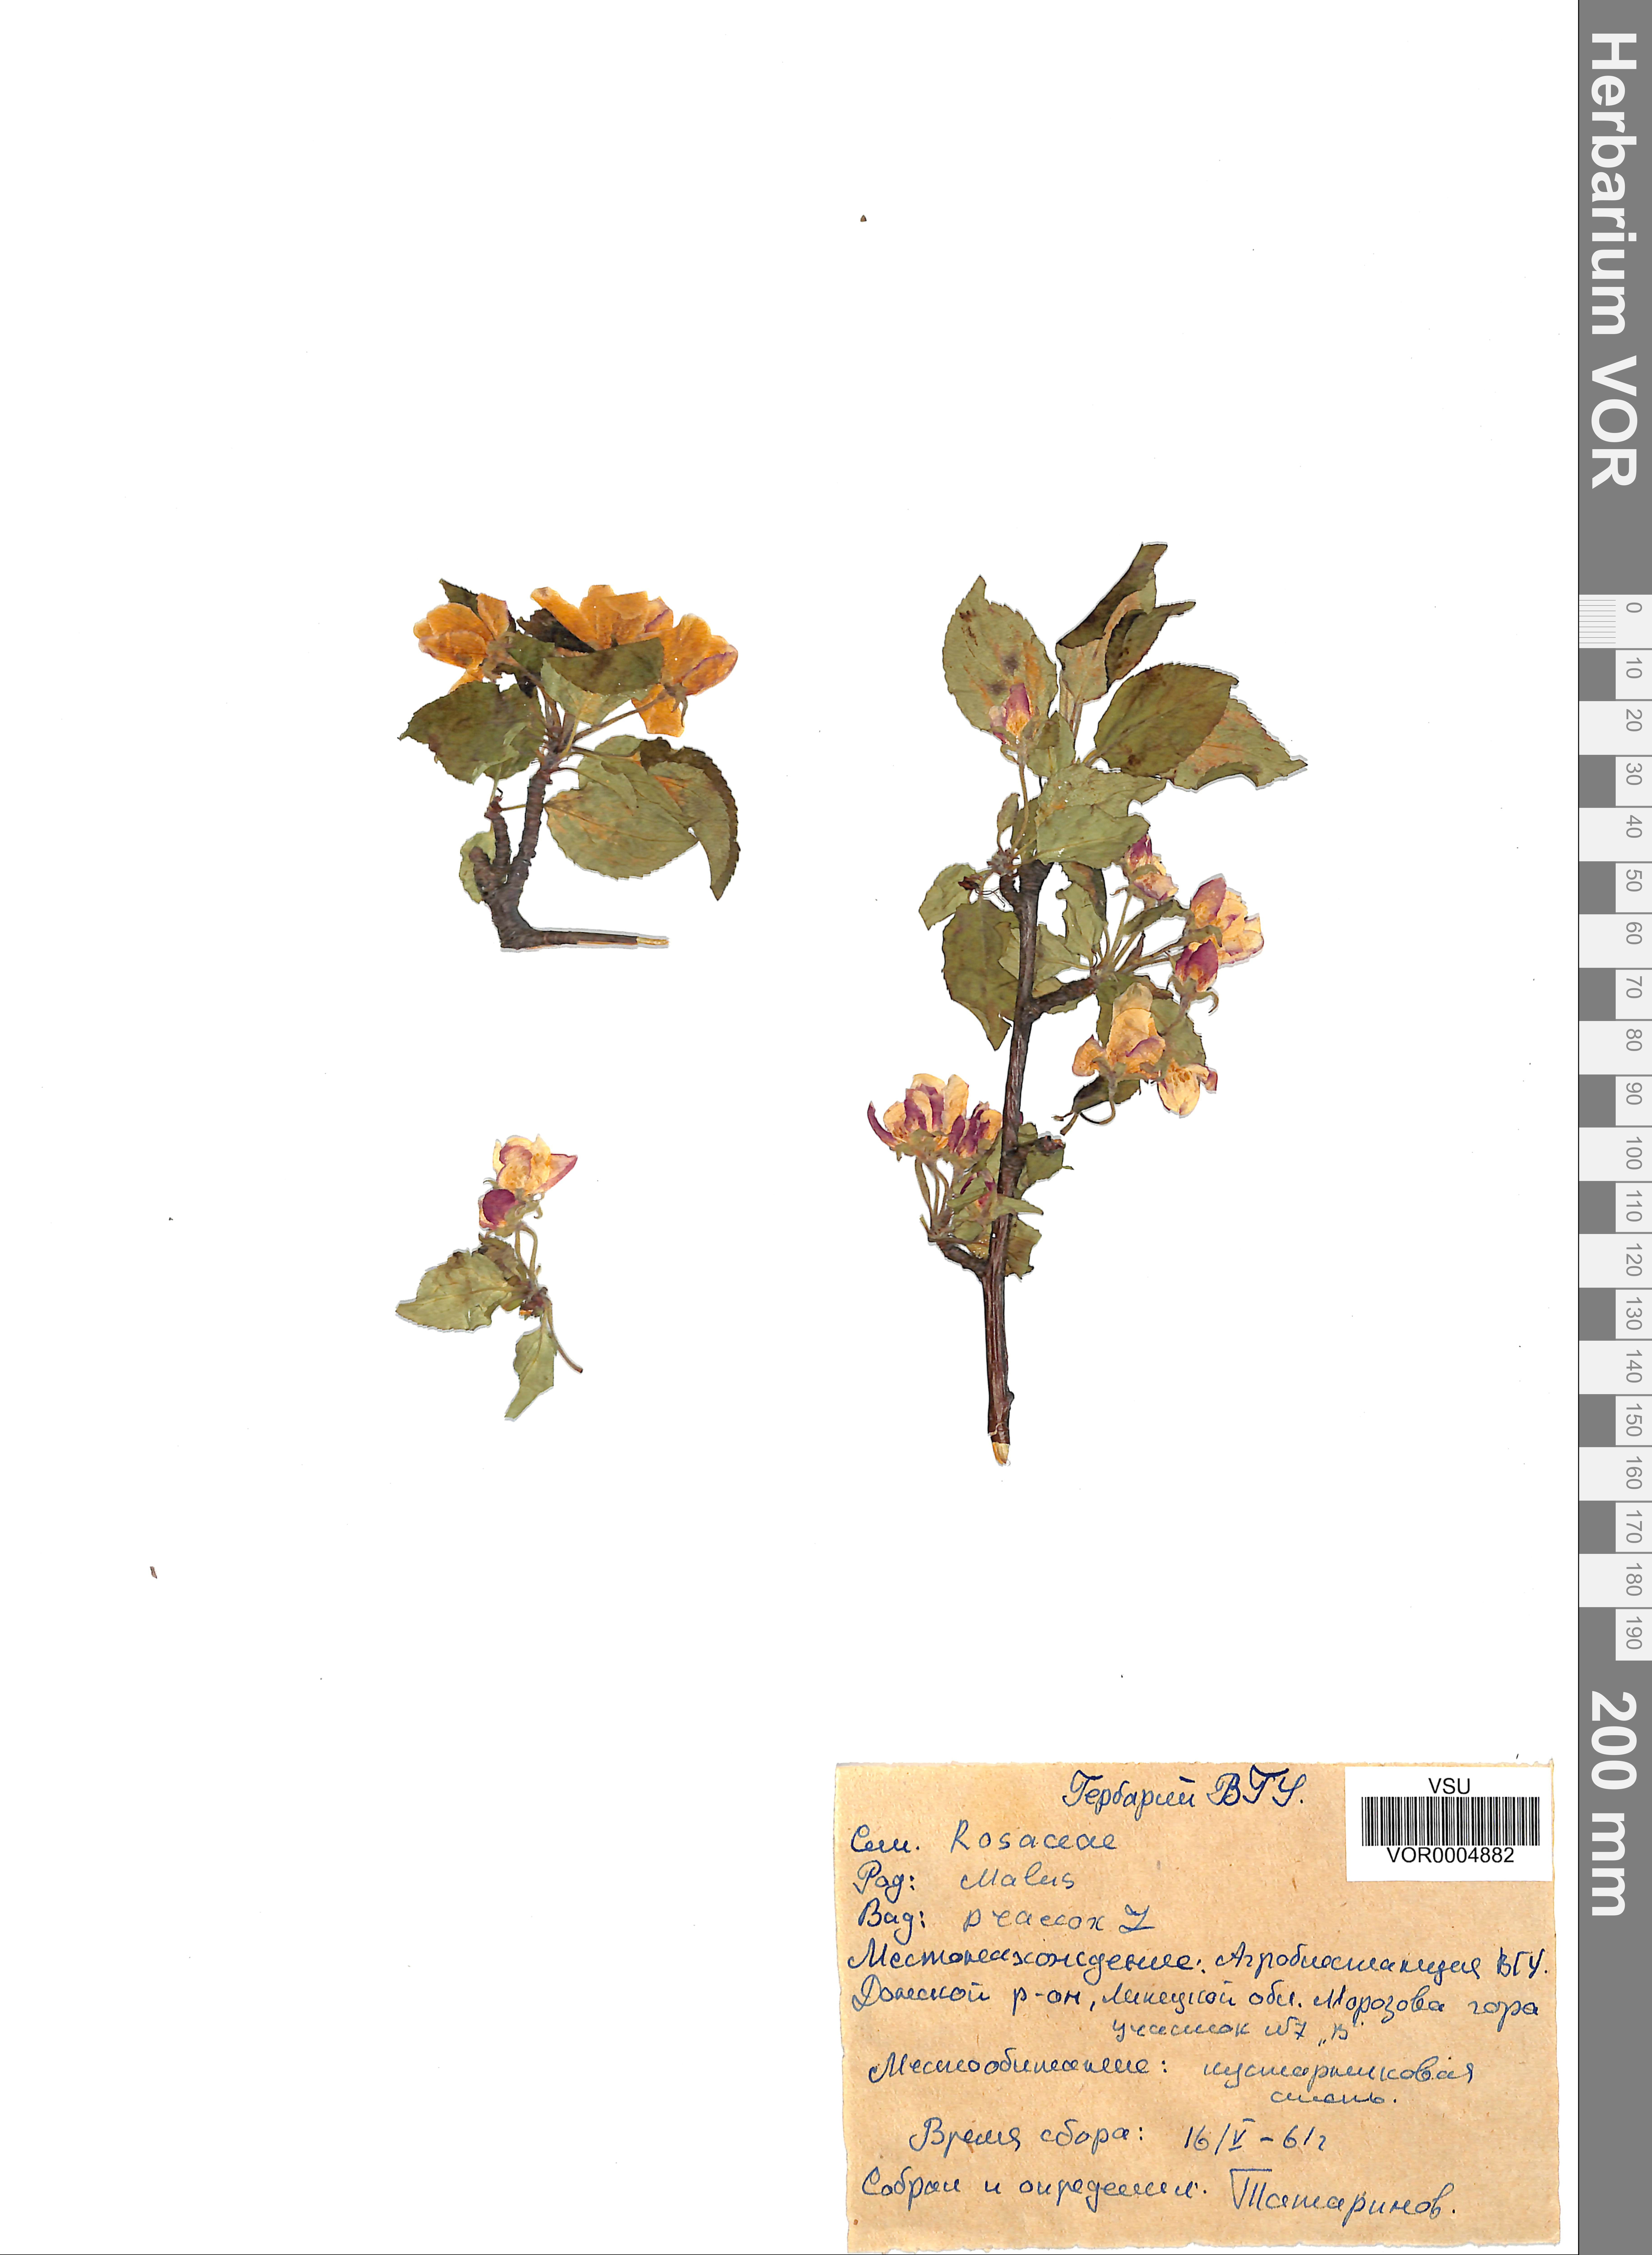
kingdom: Plantae
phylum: Tracheophyta
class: Magnoliopsida
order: Rosales
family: Rosaceae
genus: Malus
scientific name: Malus domestica
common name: Apple
